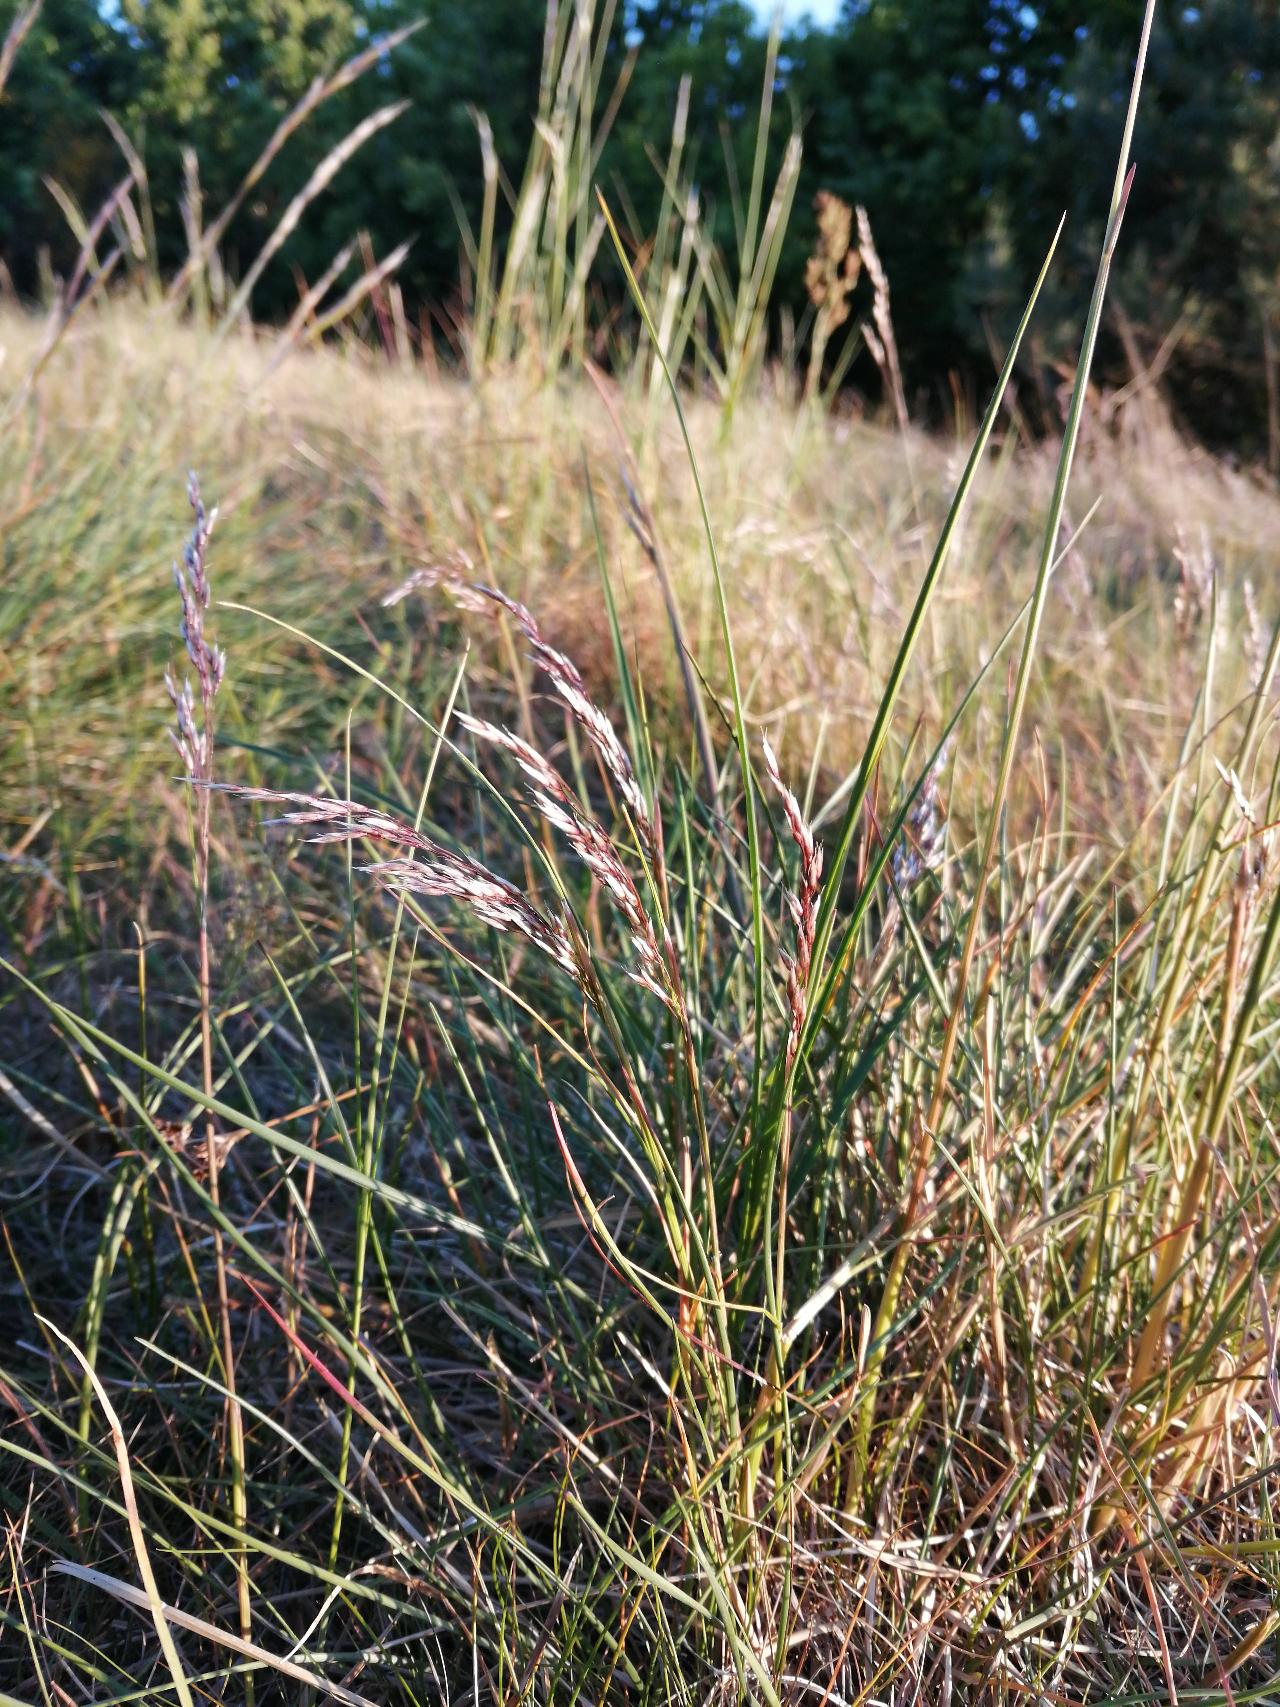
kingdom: Plantae
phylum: Tracheophyta
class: Liliopsida
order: Poales
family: Poaceae
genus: Avenella
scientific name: Avenella flexuosa
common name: Bølget bunke
